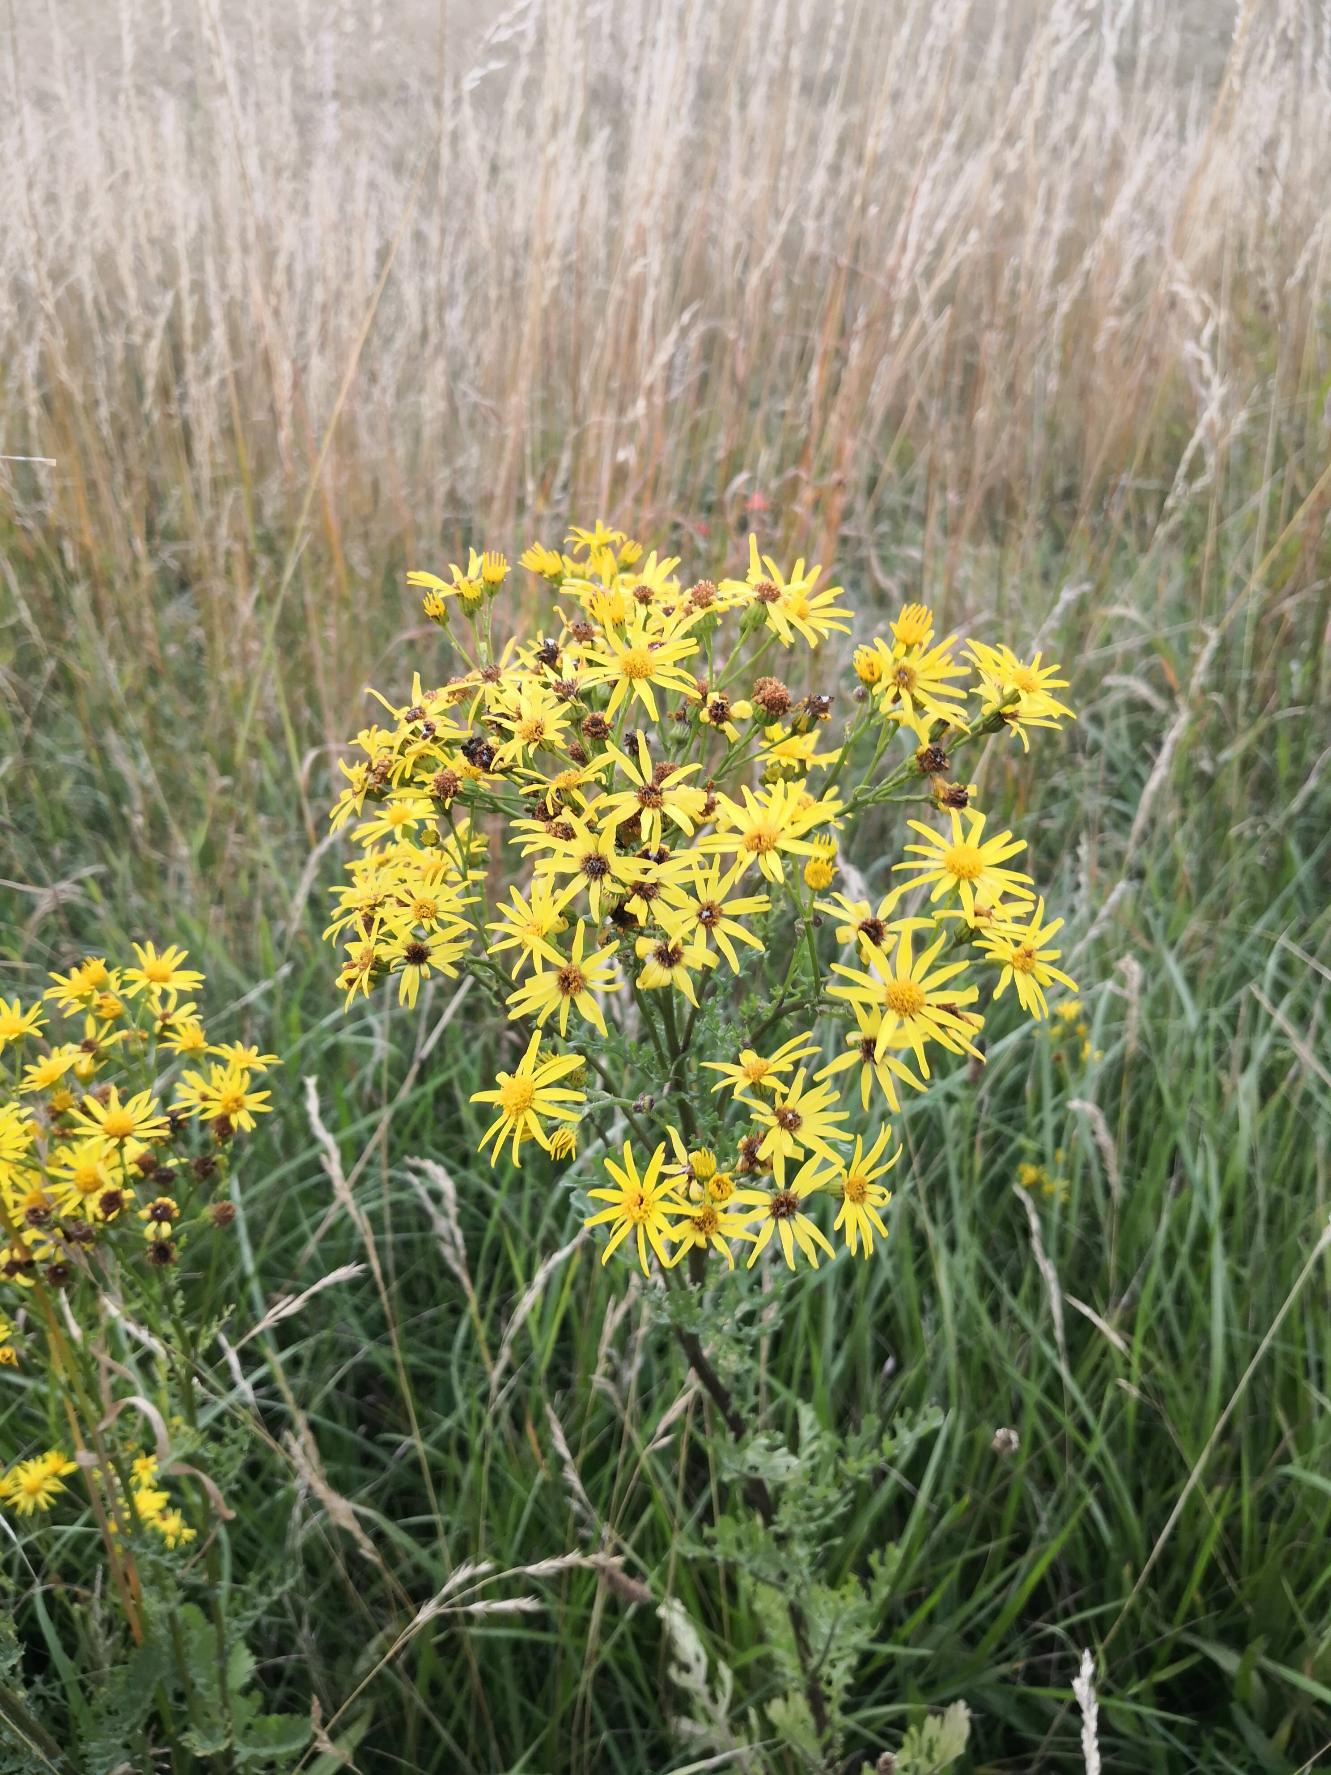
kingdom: Plantae
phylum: Tracheophyta
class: Magnoliopsida
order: Asterales
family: Asteraceae
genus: Jacobaea
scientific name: Jacobaea vulgaris
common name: Eng-brandbæger
